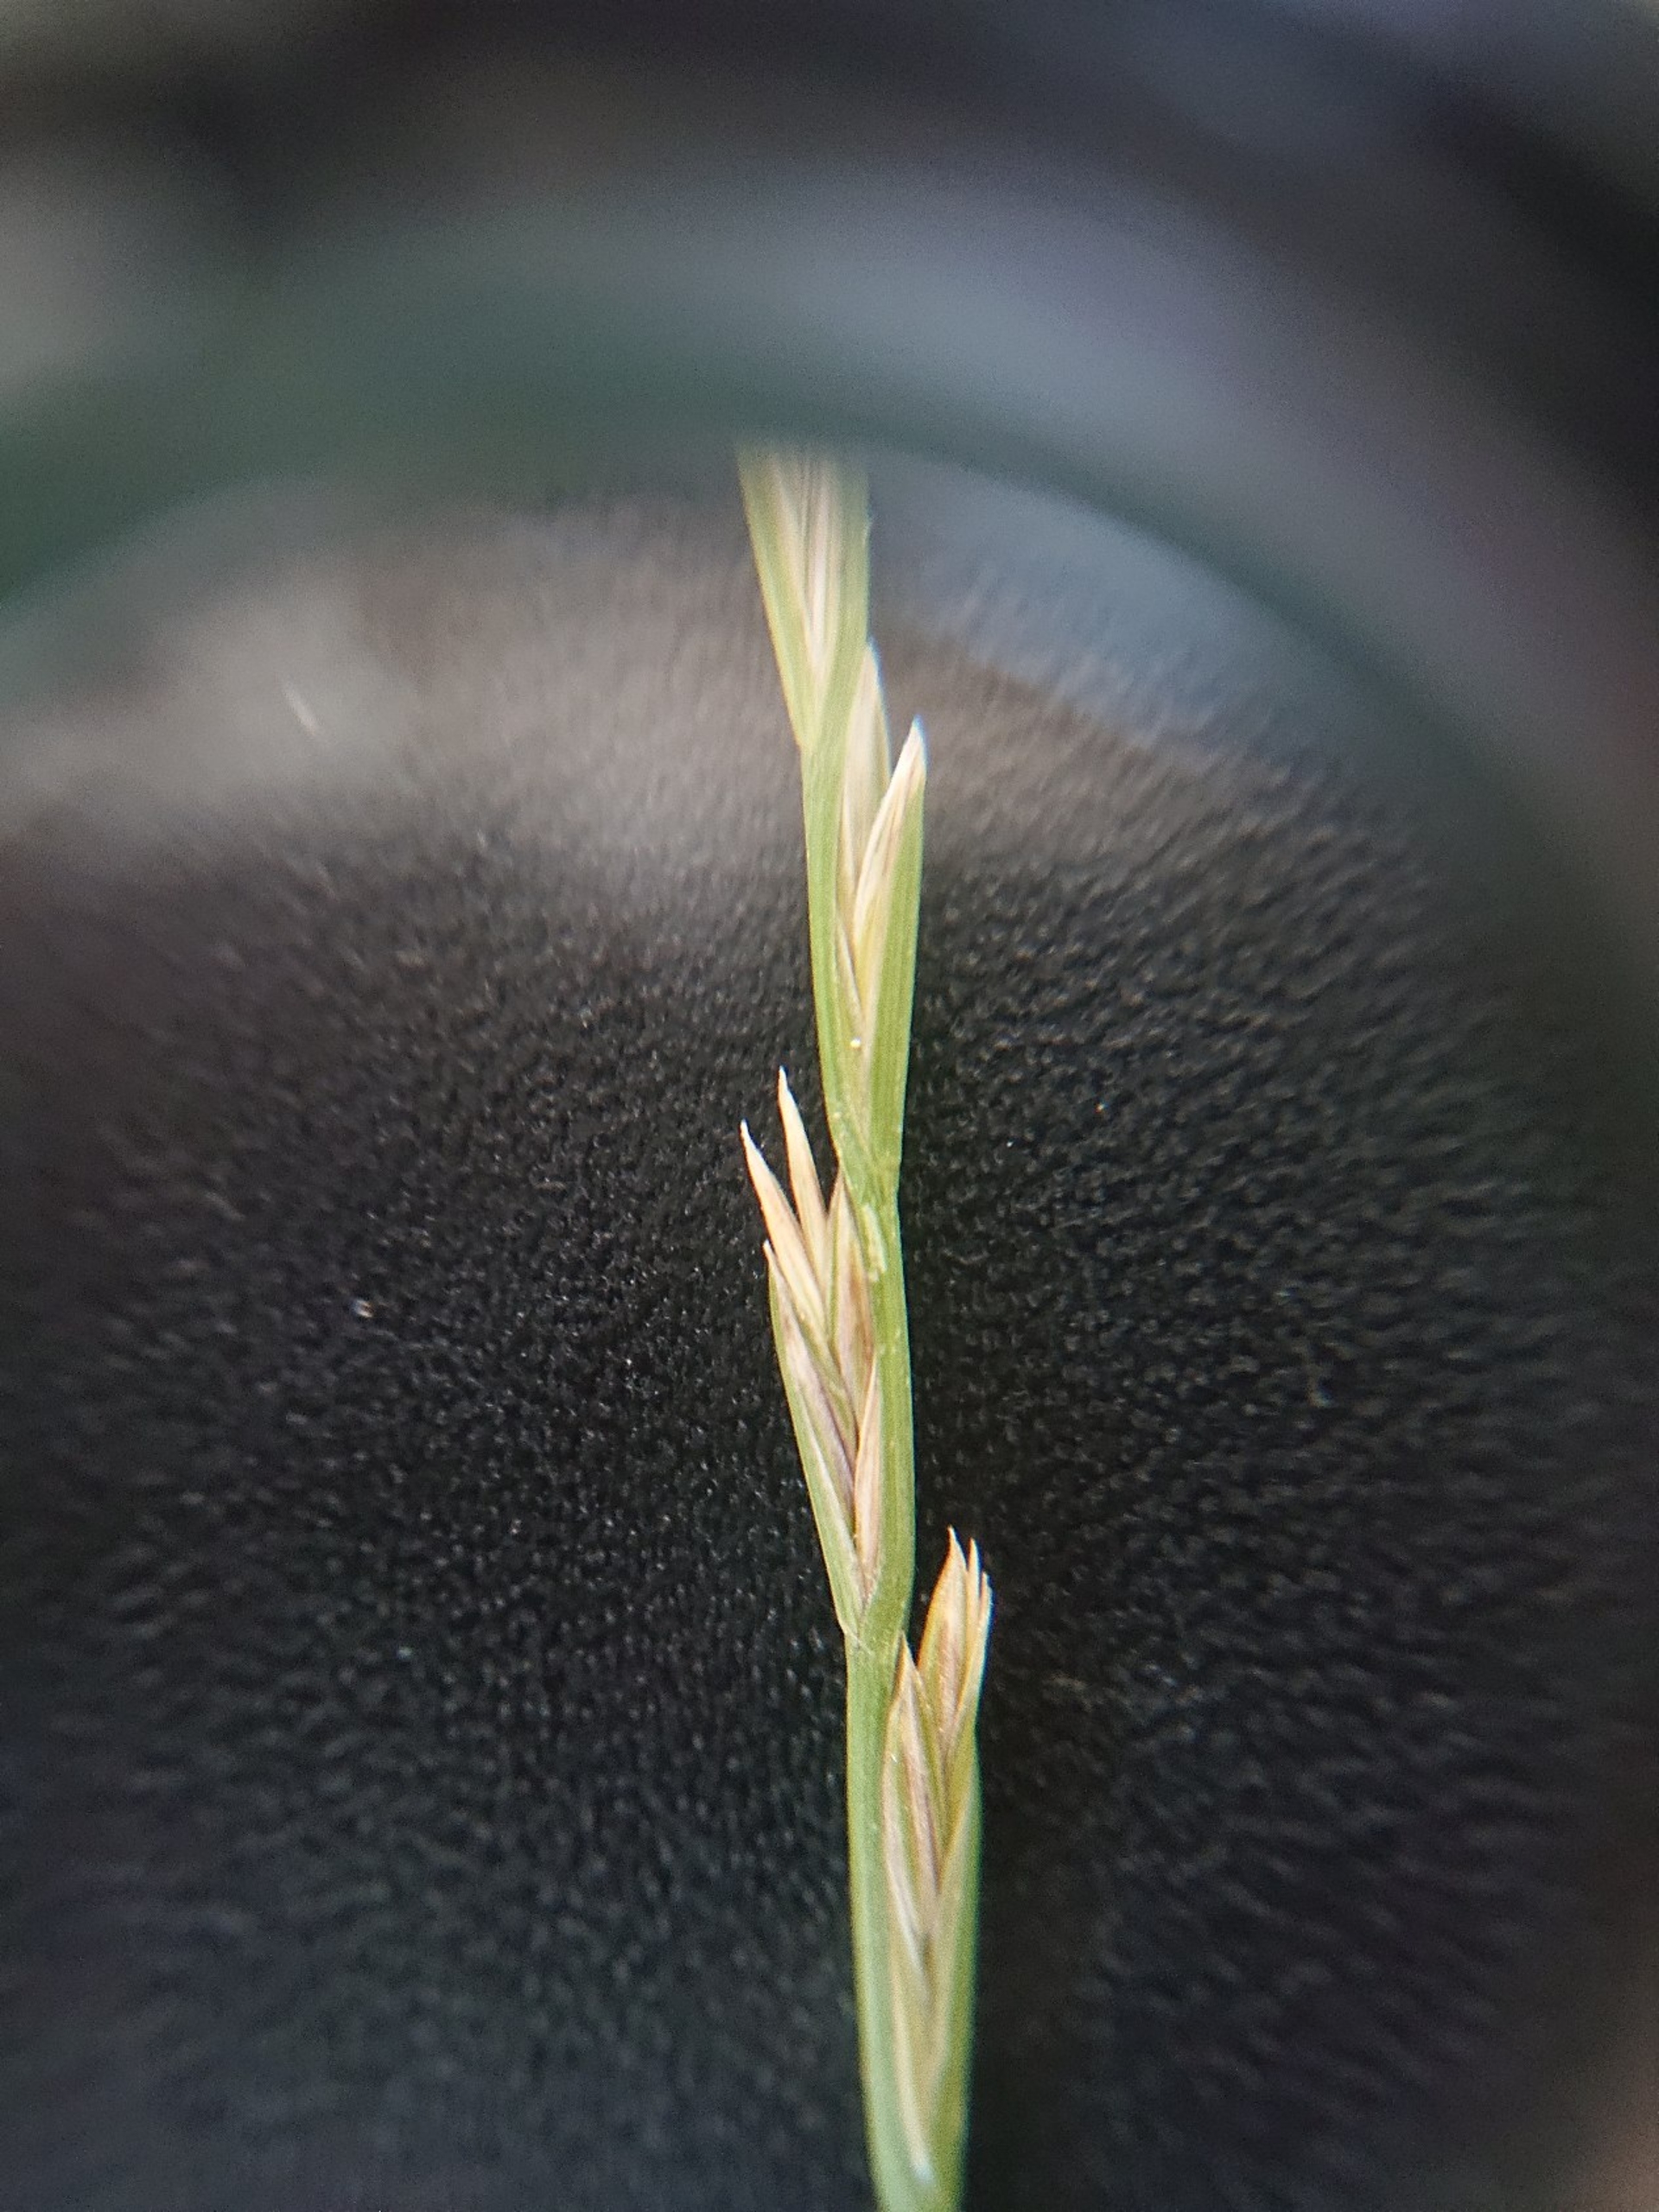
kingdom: Plantae
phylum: Tracheophyta
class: Liliopsida
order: Poales
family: Poaceae
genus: Lolium
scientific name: Lolium perenne
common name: Almindelig rajgræs
